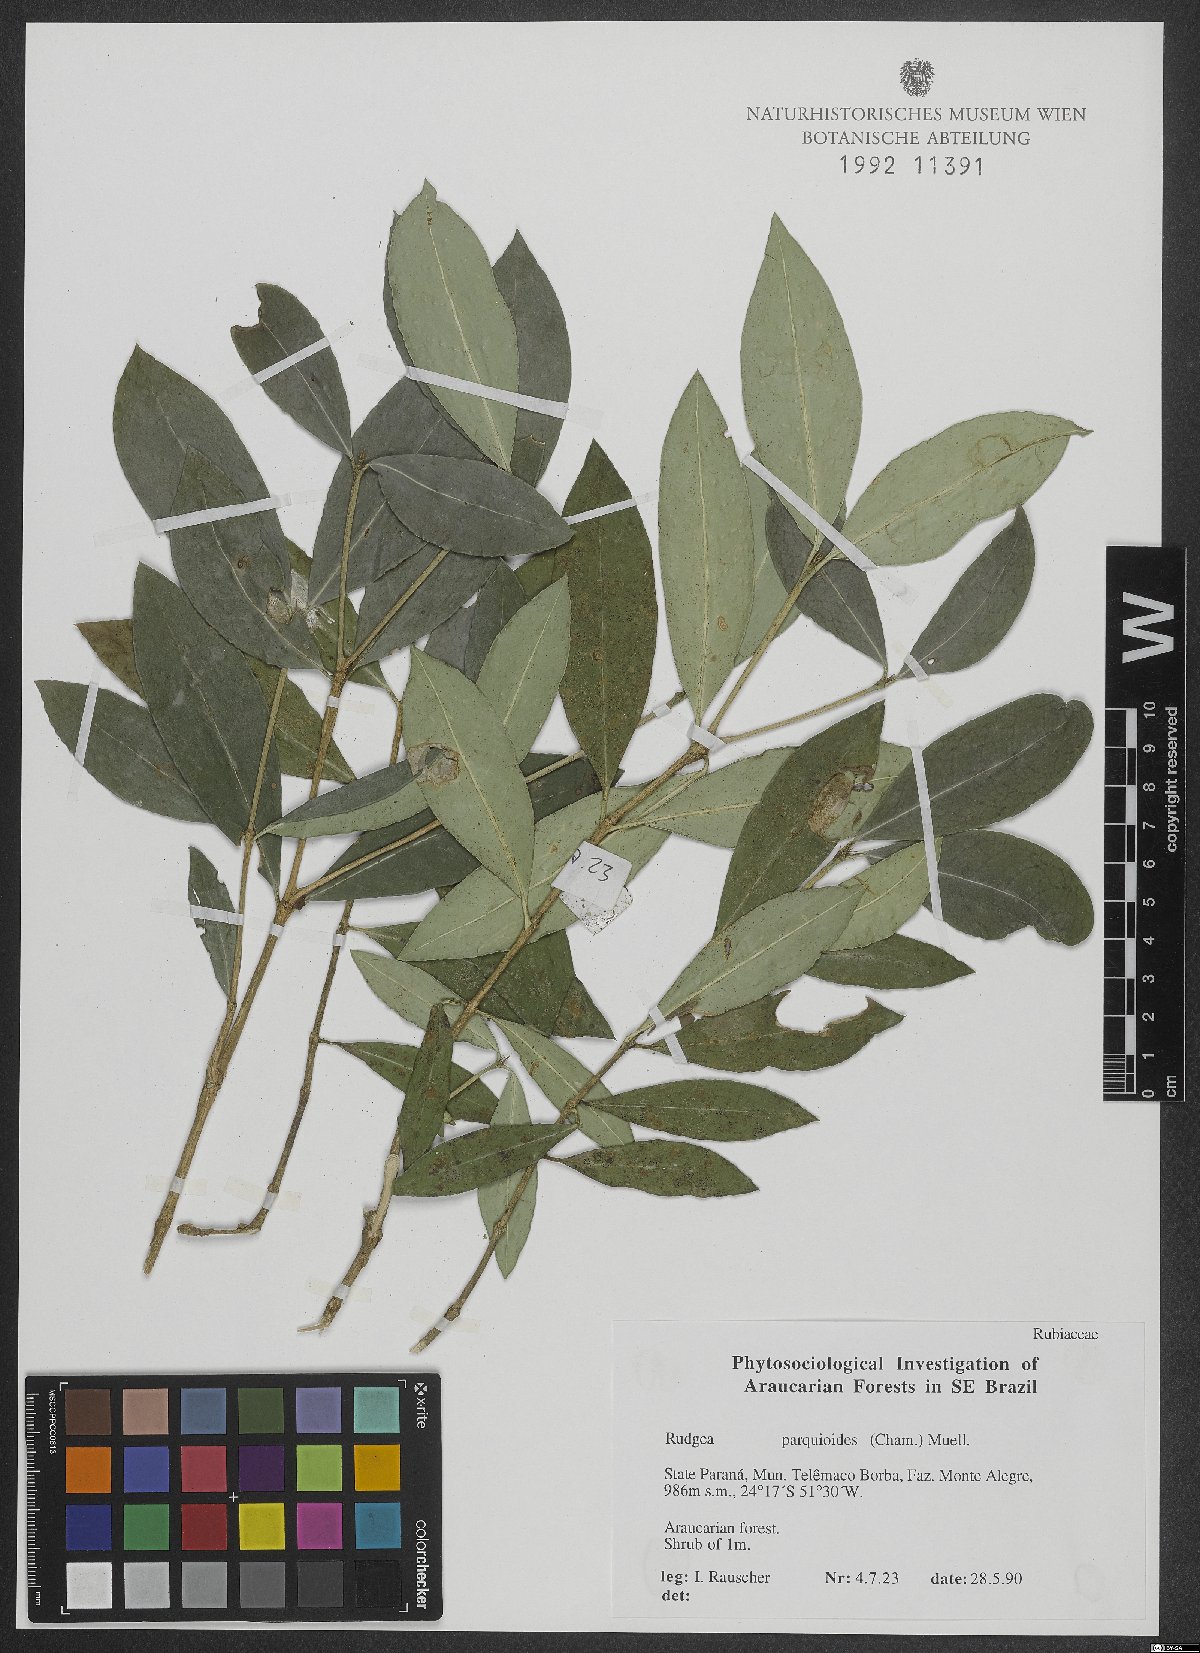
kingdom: Plantae
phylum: Tracheophyta
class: Magnoliopsida
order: Gentianales
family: Rubiaceae
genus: Rudgea
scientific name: Rudgea parquioides
